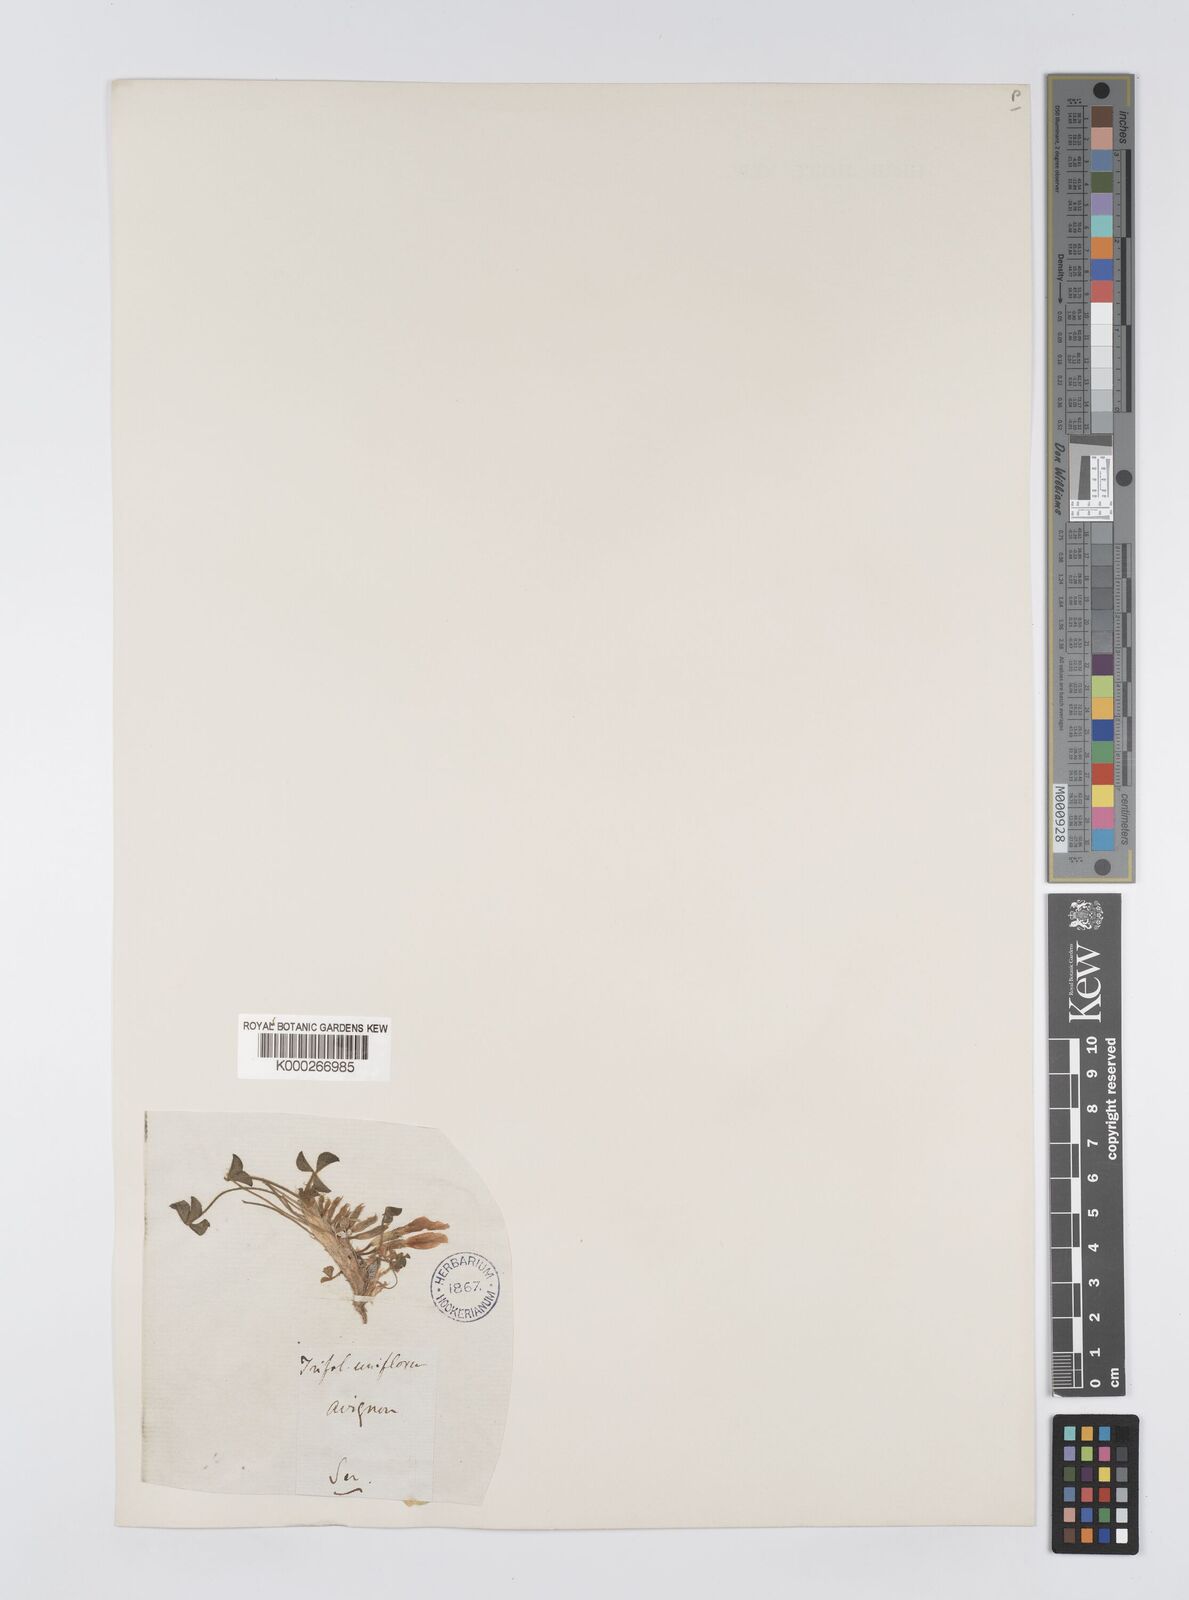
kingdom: Plantae
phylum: Tracheophyta
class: Magnoliopsida
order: Fabales
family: Fabaceae
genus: Trifolium
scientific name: Trifolium uniflorum
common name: One-flower clover
